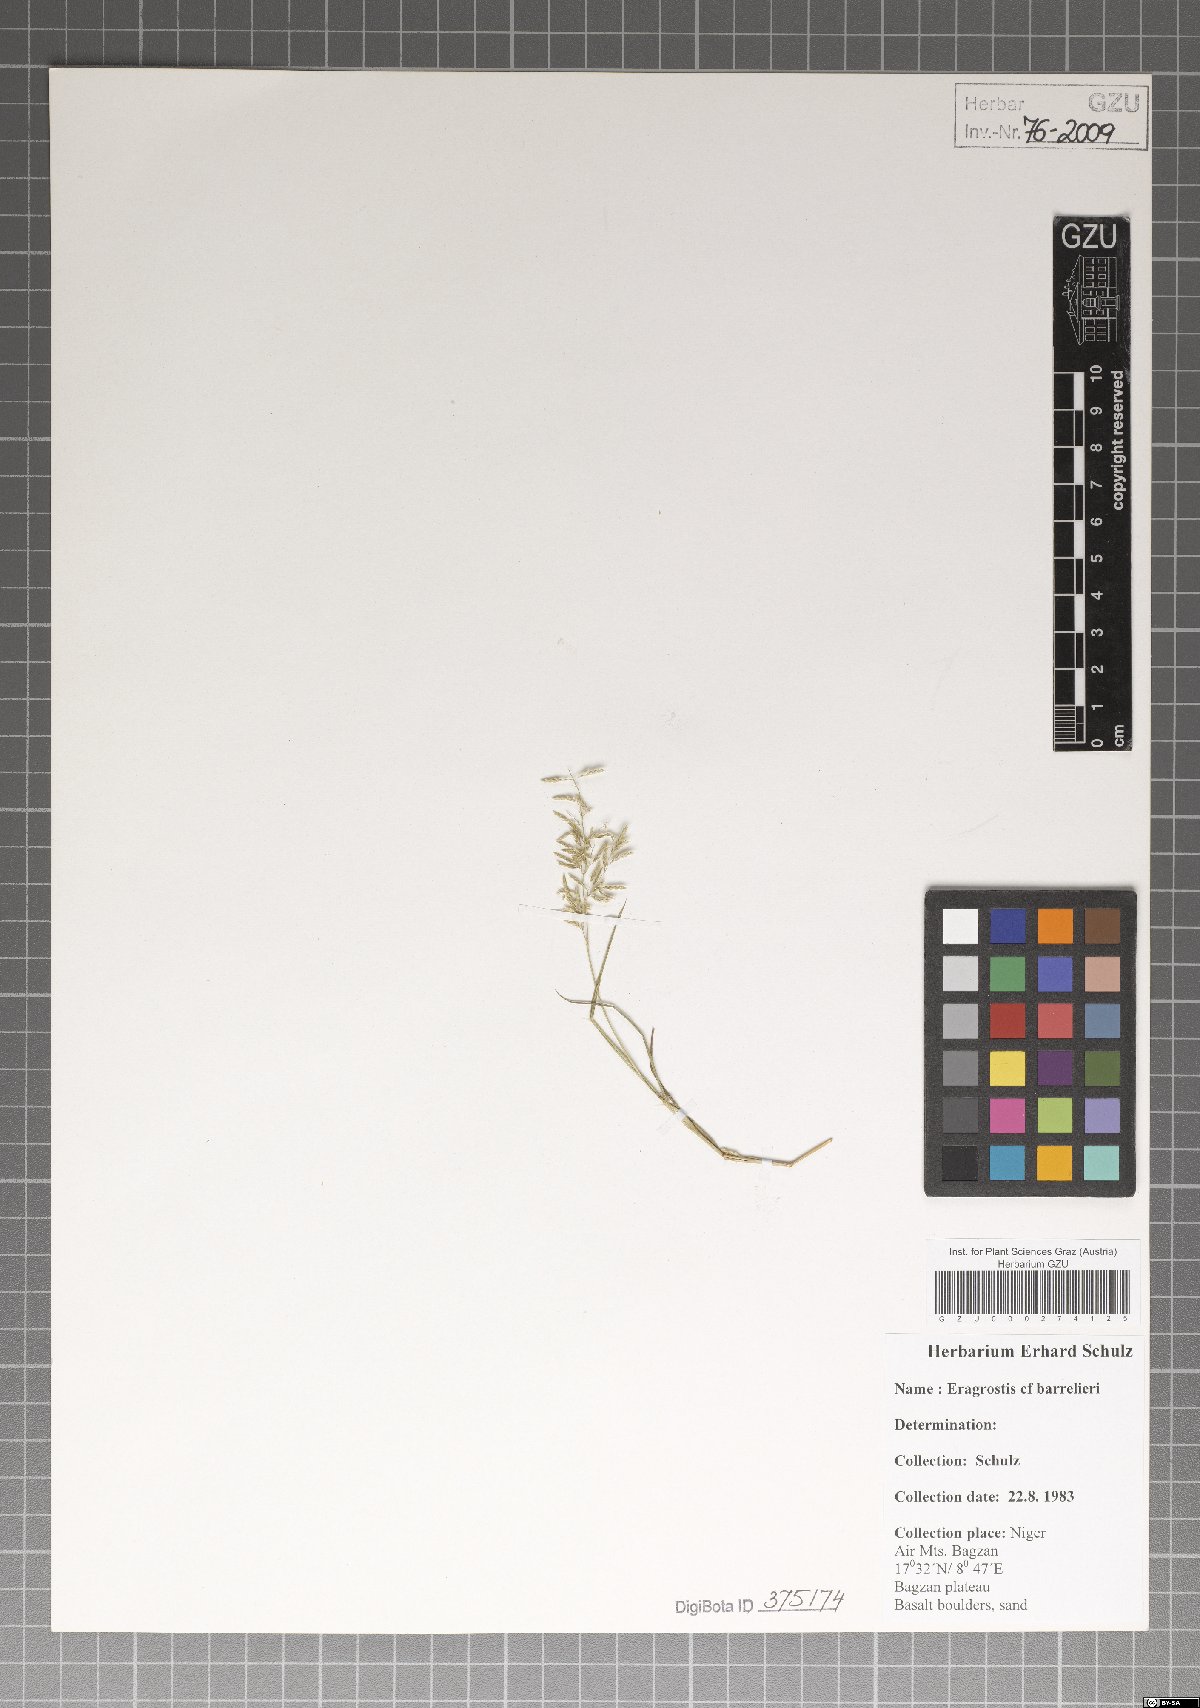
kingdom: Plantae
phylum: Tracheophyta
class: Liliopsida
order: Poales
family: Poaceae
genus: Eragrostis
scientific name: Eragrostis barrelieri
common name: Mediterranean lovegrass
